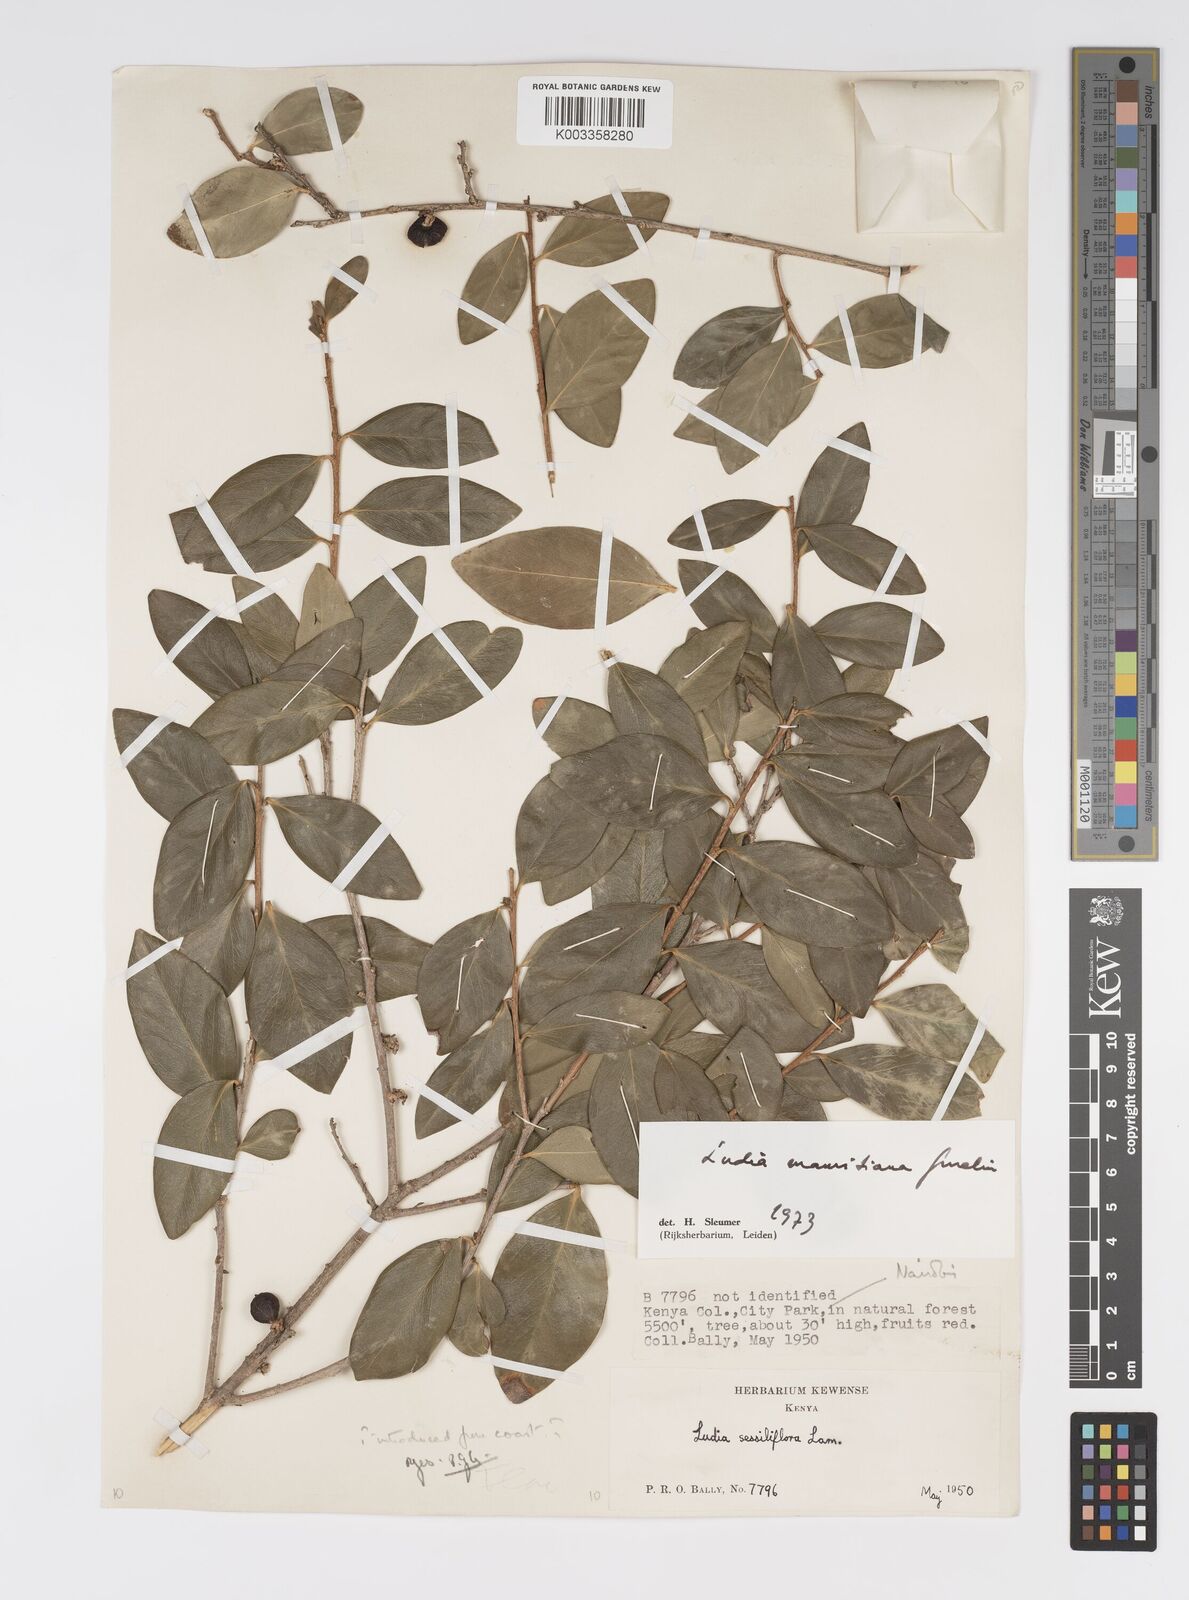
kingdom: Plantae
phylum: Tracheophyta
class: Magnoliopsida
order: Malpighiales
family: Salicaceae
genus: Ludia
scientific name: Ludia mauritiana
